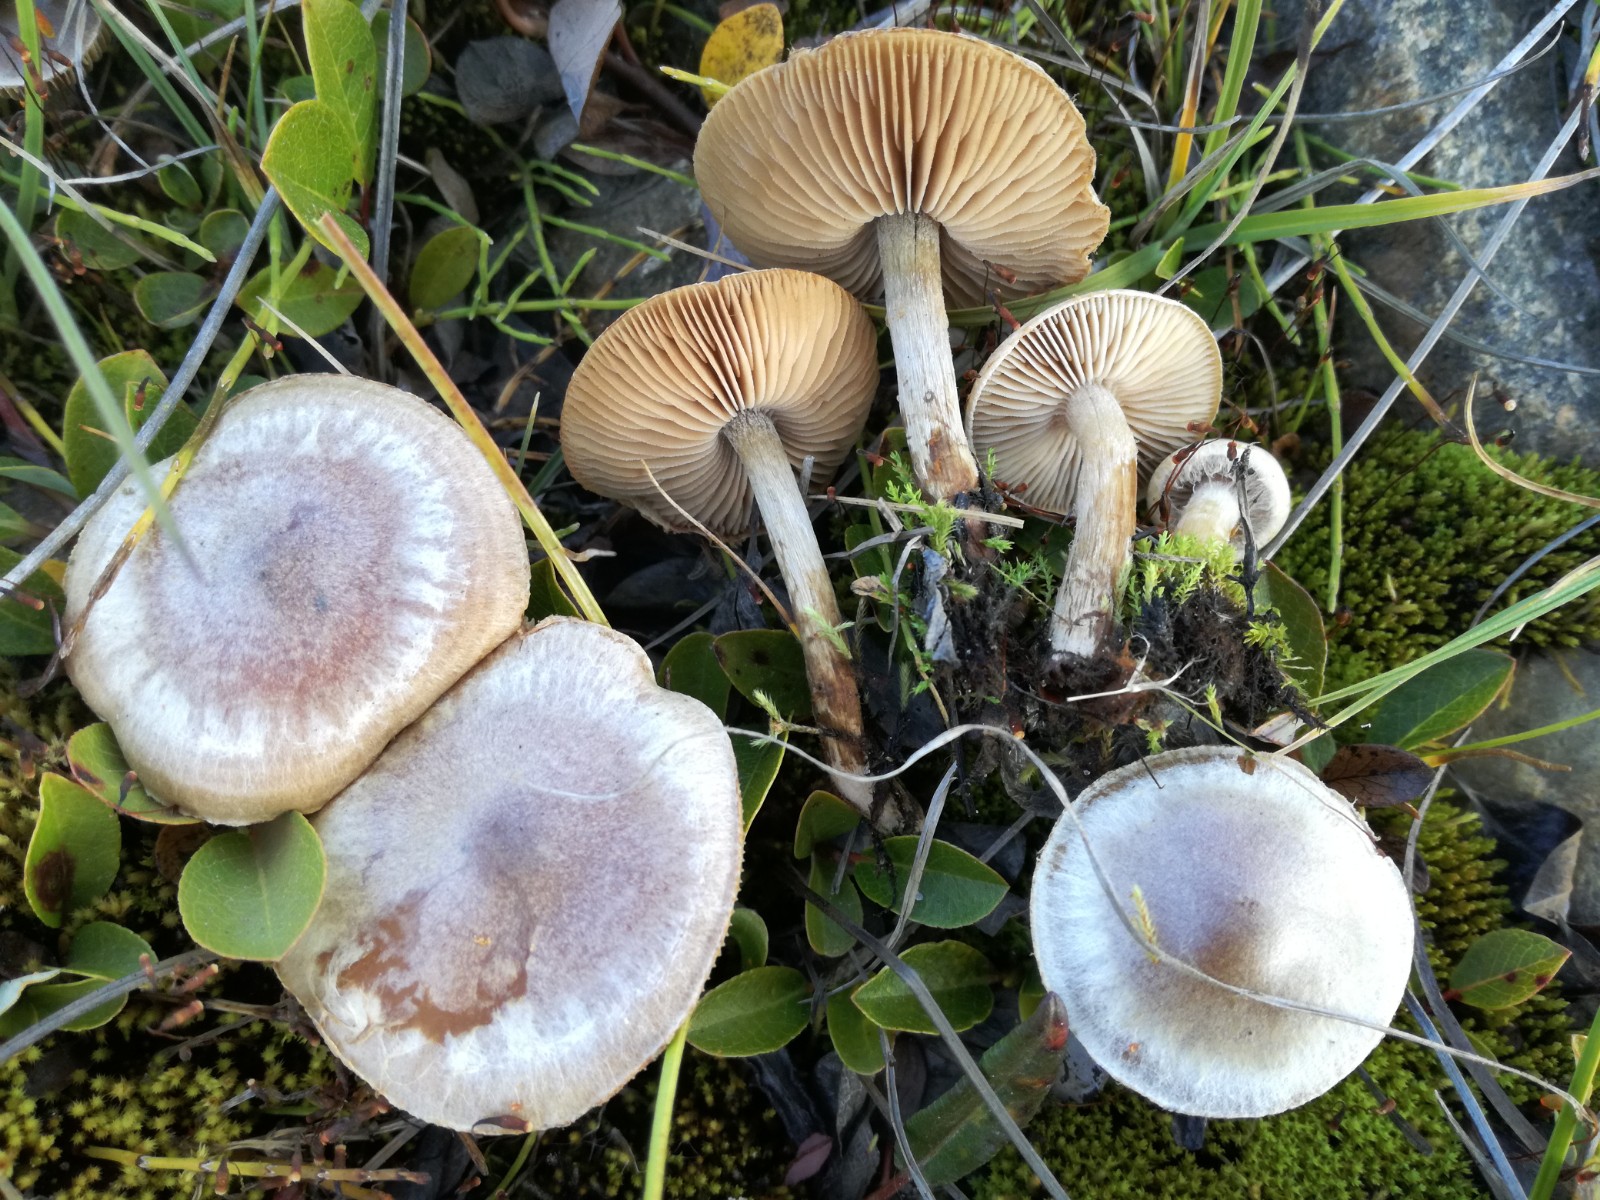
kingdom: Fungi
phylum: Basidiomycota
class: Agaricomycetes
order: Agaricales
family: Hymenogastraceae
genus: Hebeloma
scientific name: Hebeloma
